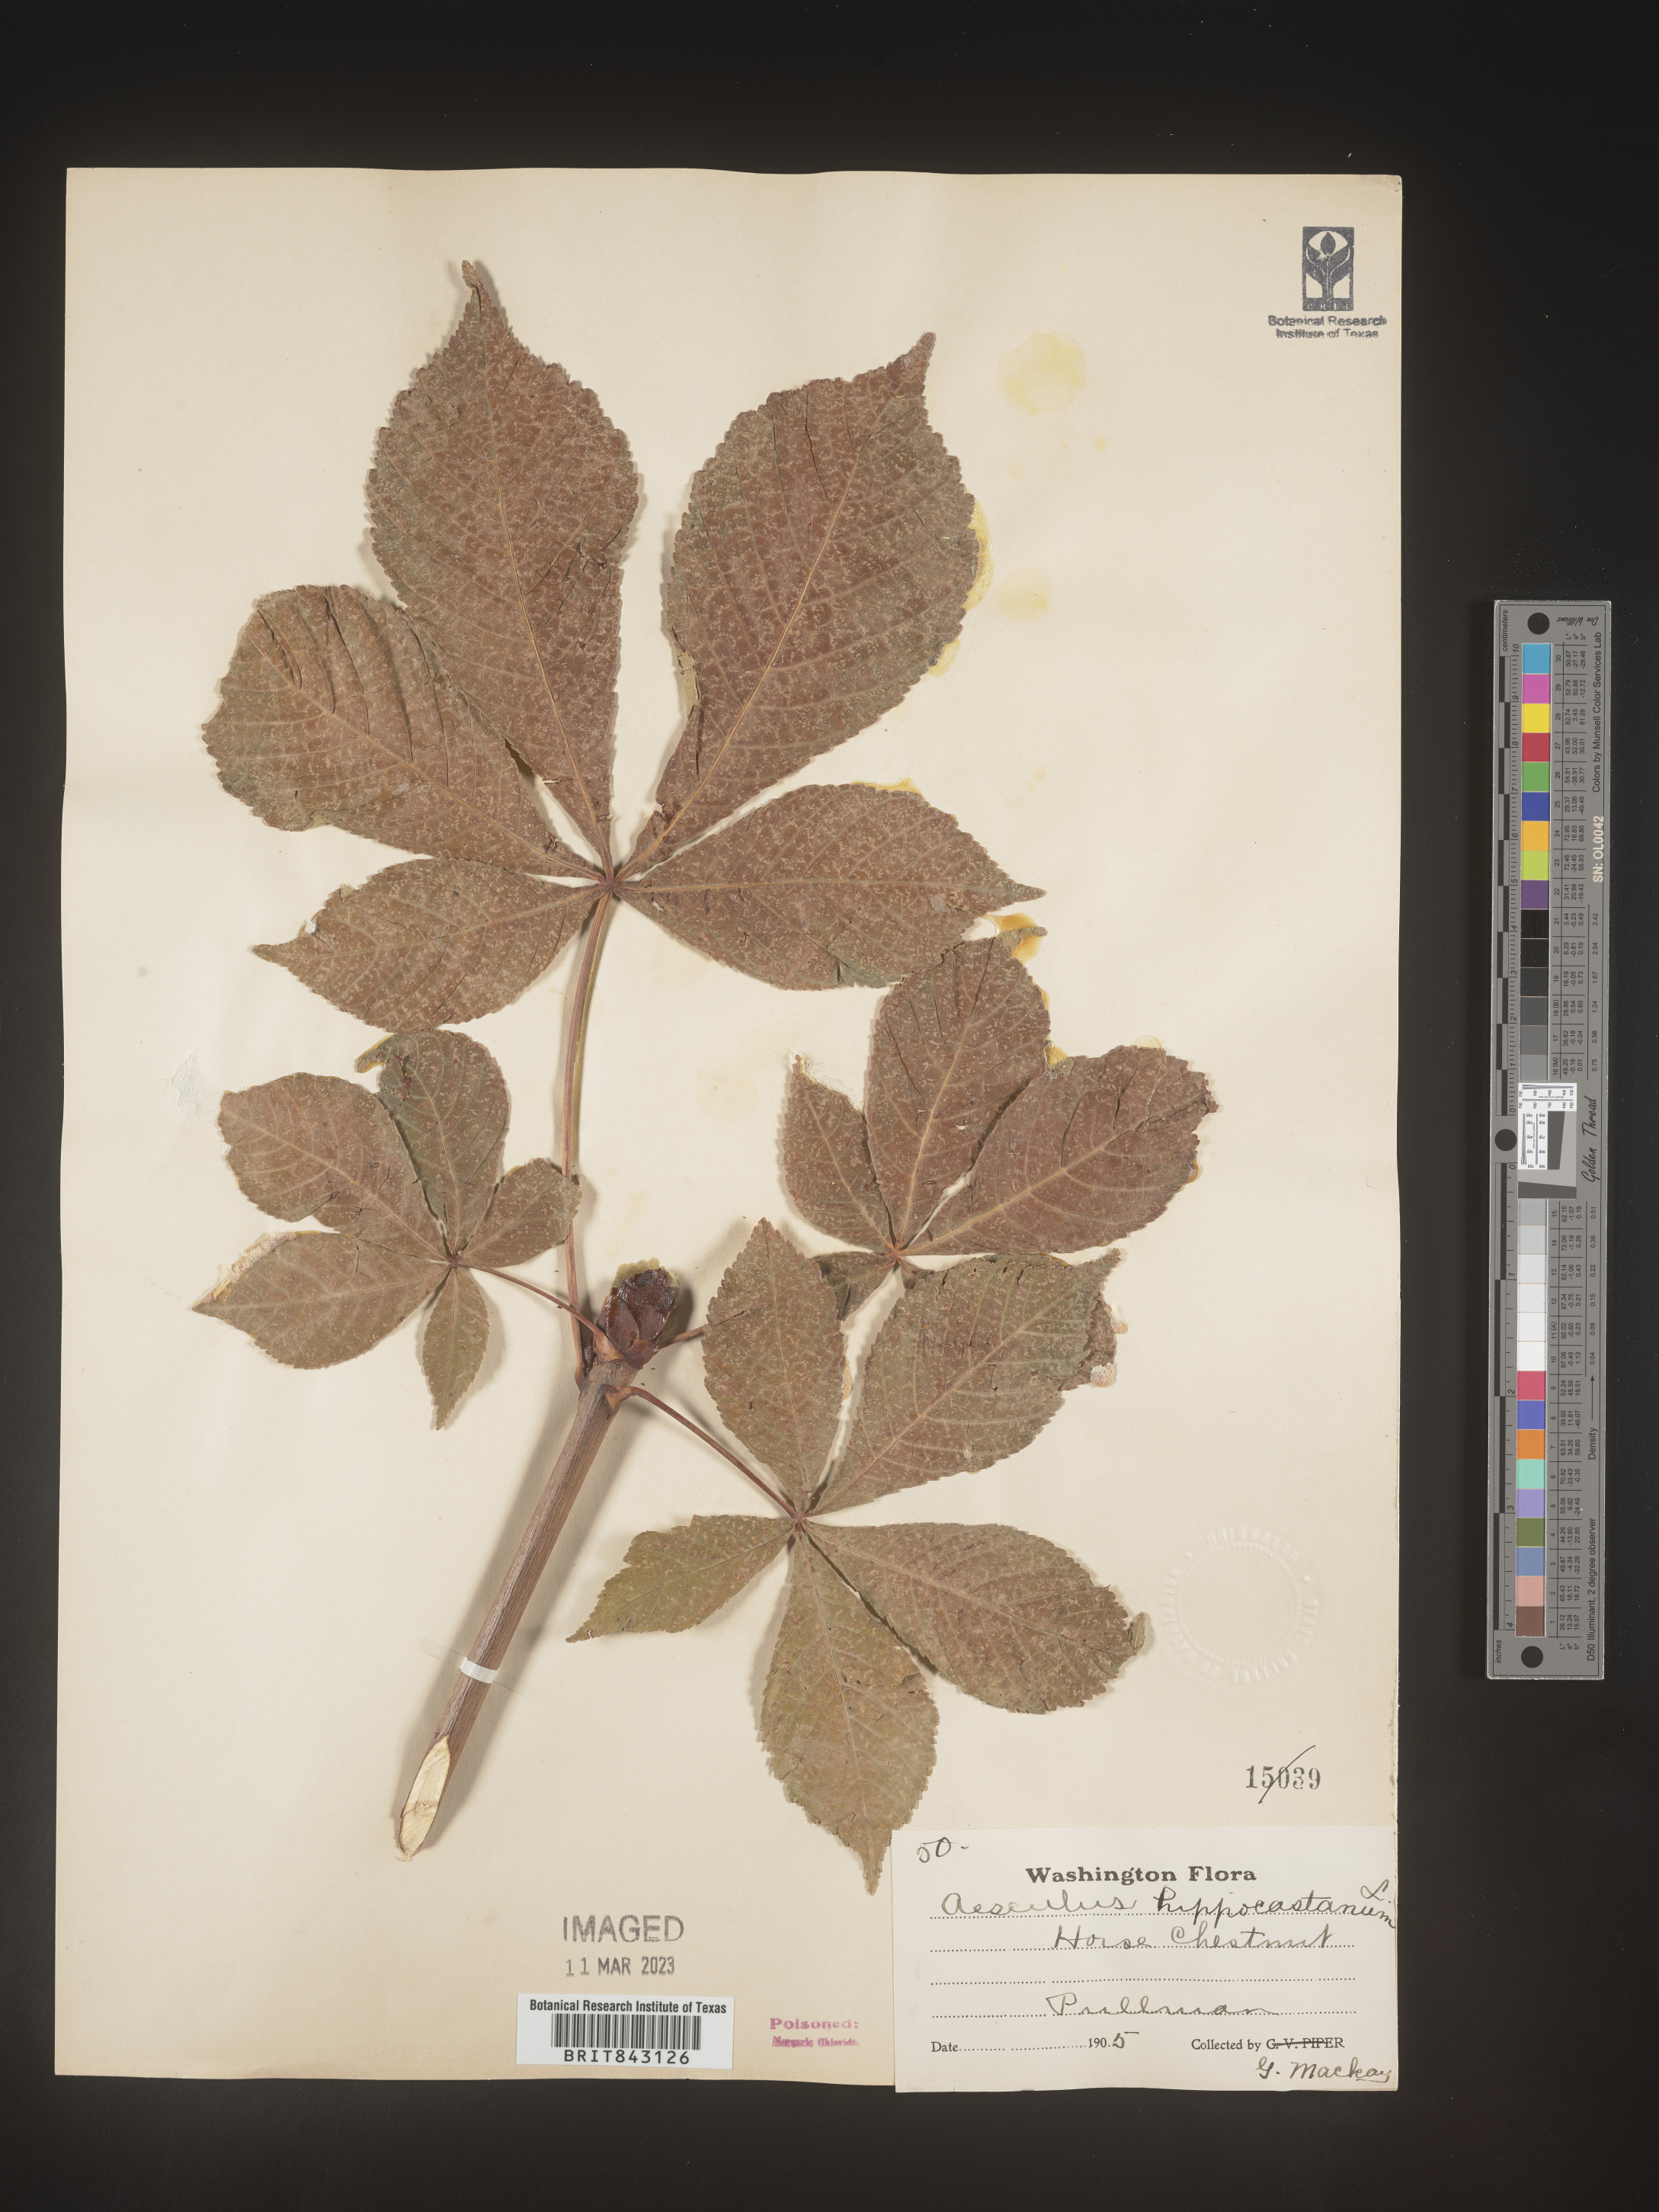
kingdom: Plantae
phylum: Tracheophyta
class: Magnoliopsida
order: Sapindales
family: Sapindaceae
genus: Aesculus
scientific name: Aesculus
